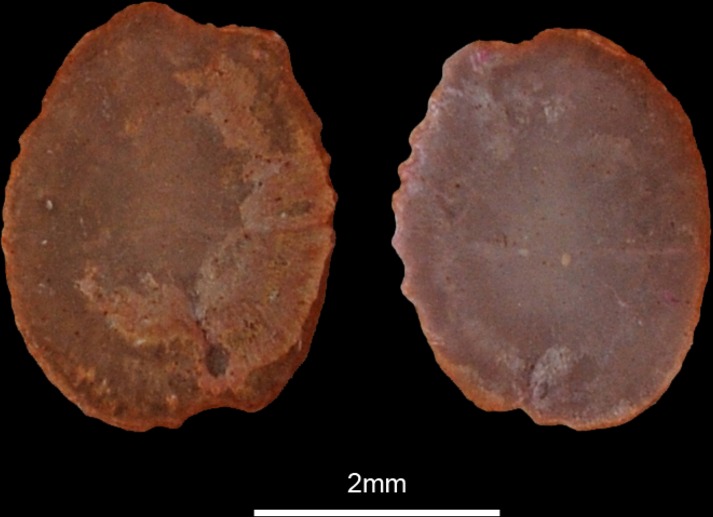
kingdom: Animalia
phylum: Chordata
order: Pleuronectiformes
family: Soleidae
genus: Solea
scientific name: Solea senegalensis
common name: Senegalese sole
